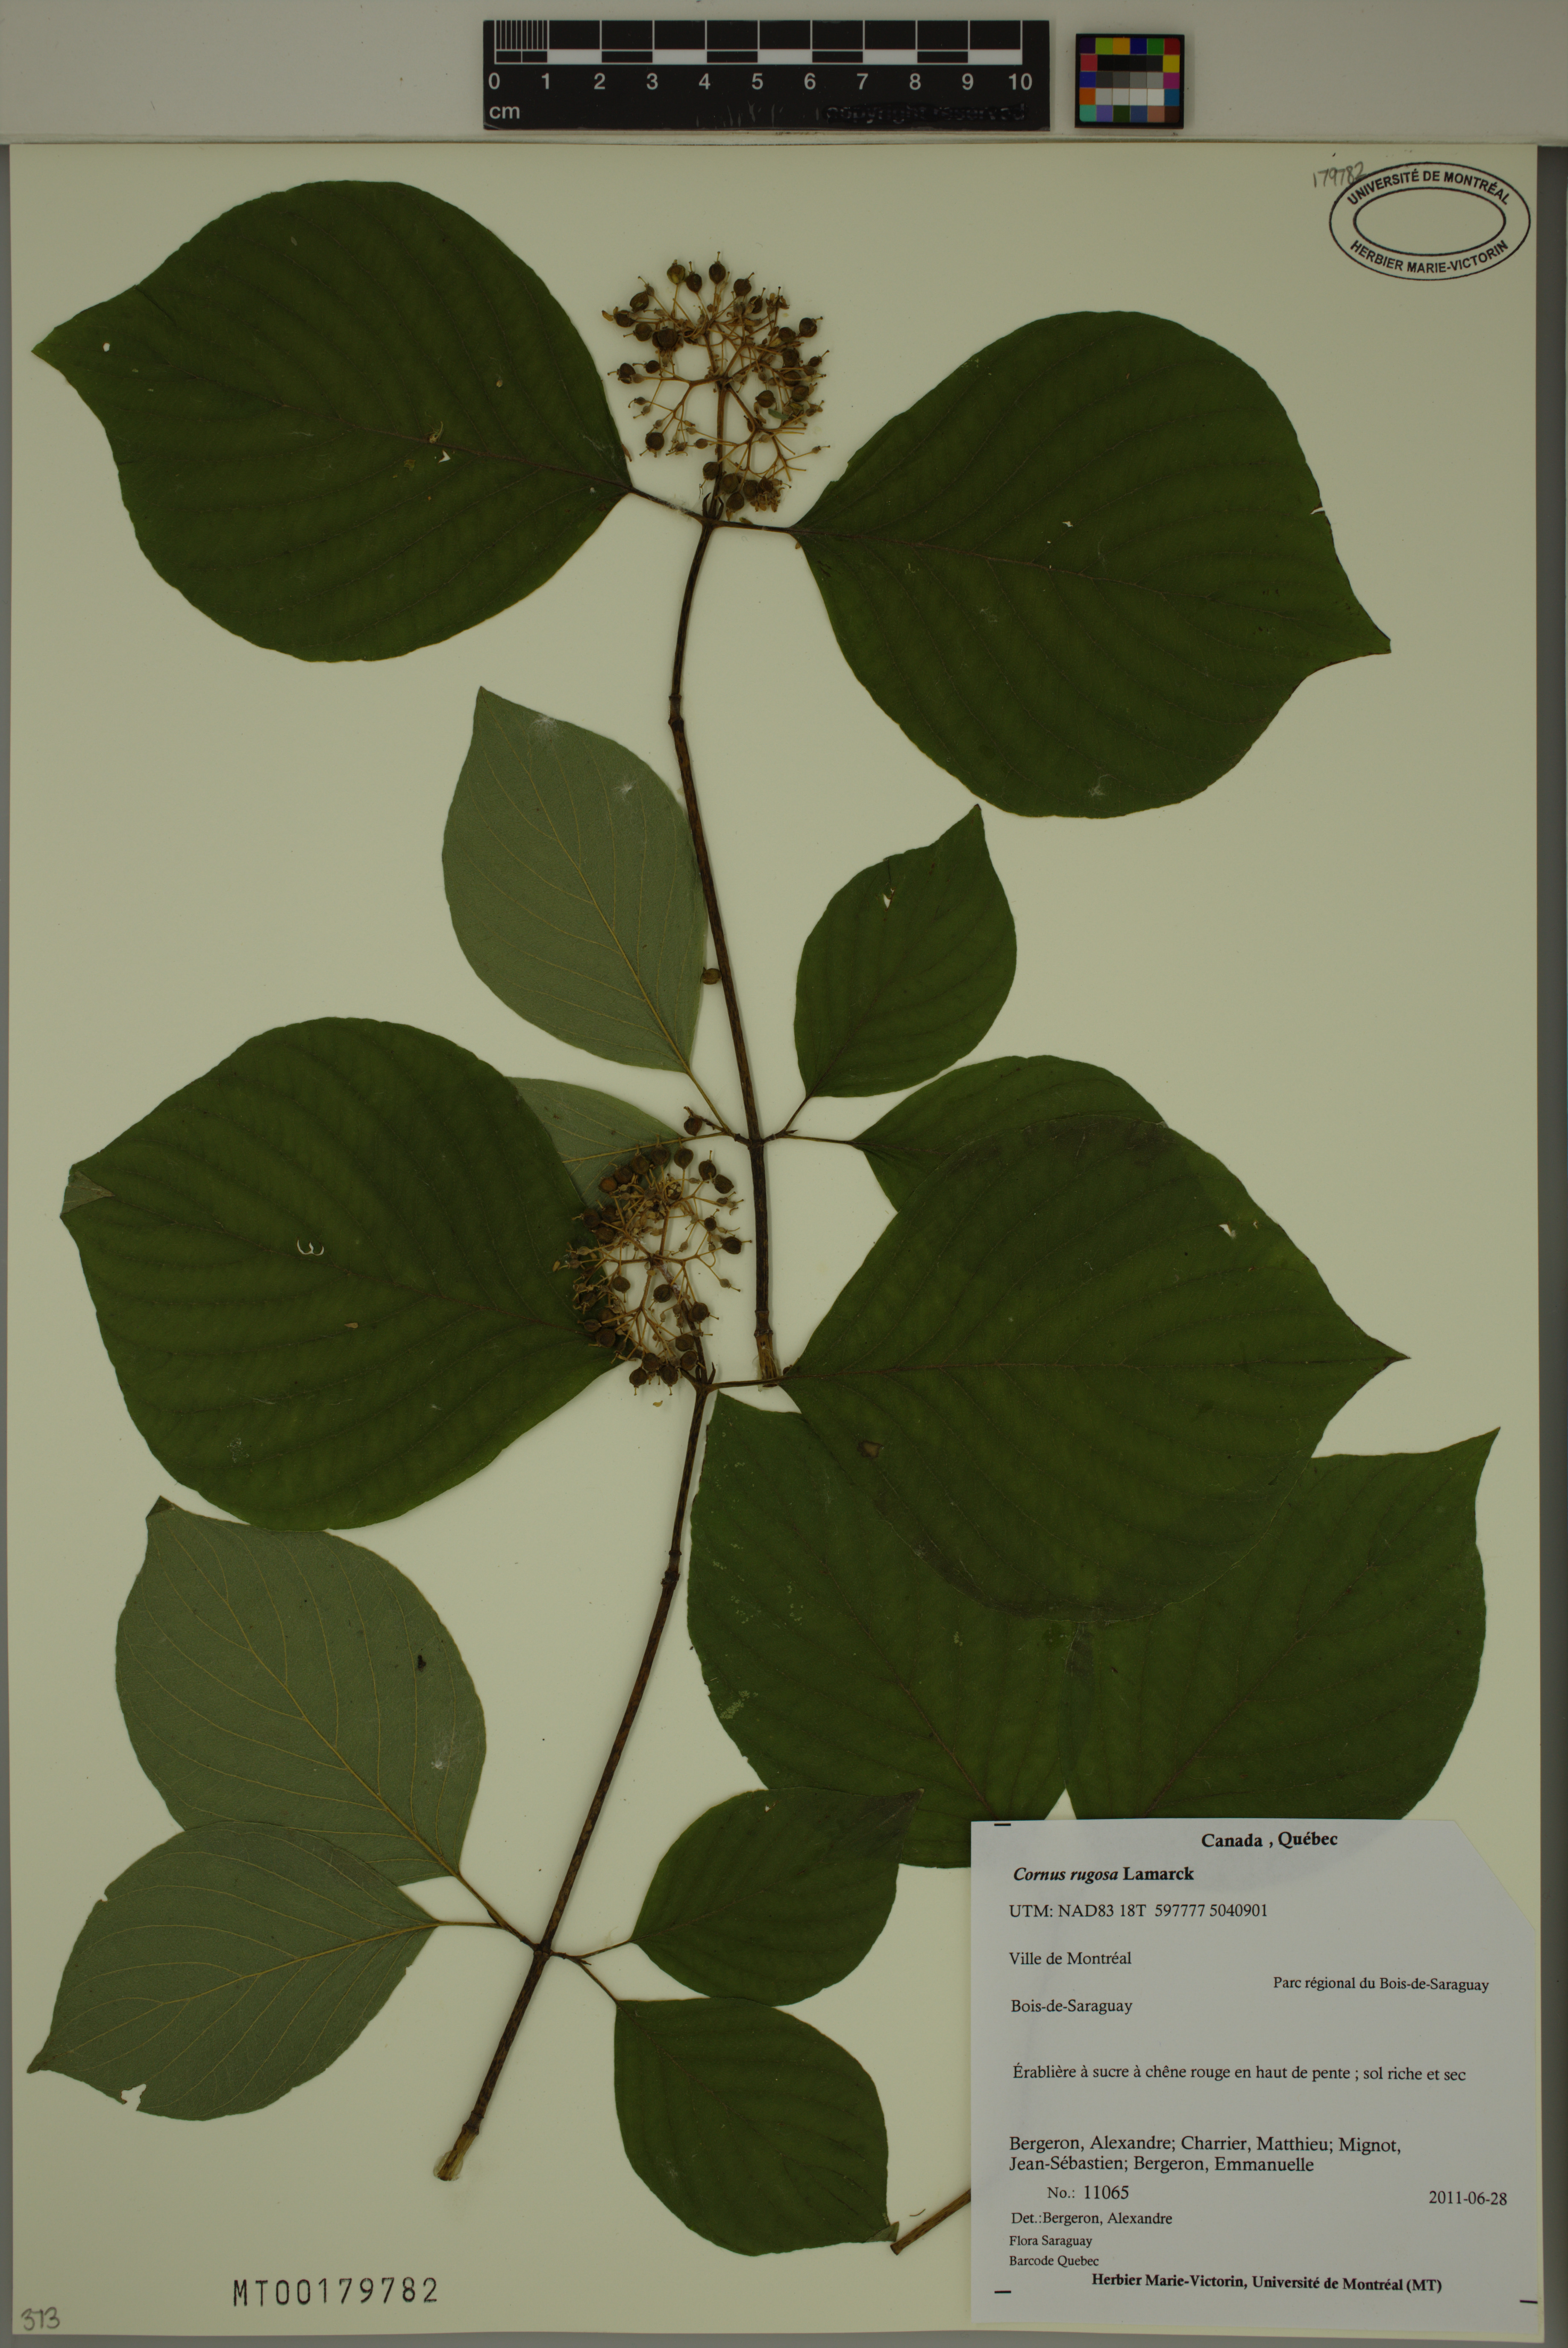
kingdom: Plantae
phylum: Tracheophyta
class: Magnoliopsida
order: Cornales
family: Cornaceae
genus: Cornus
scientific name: Cornus rugosa
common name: Round-leaf dogwood
